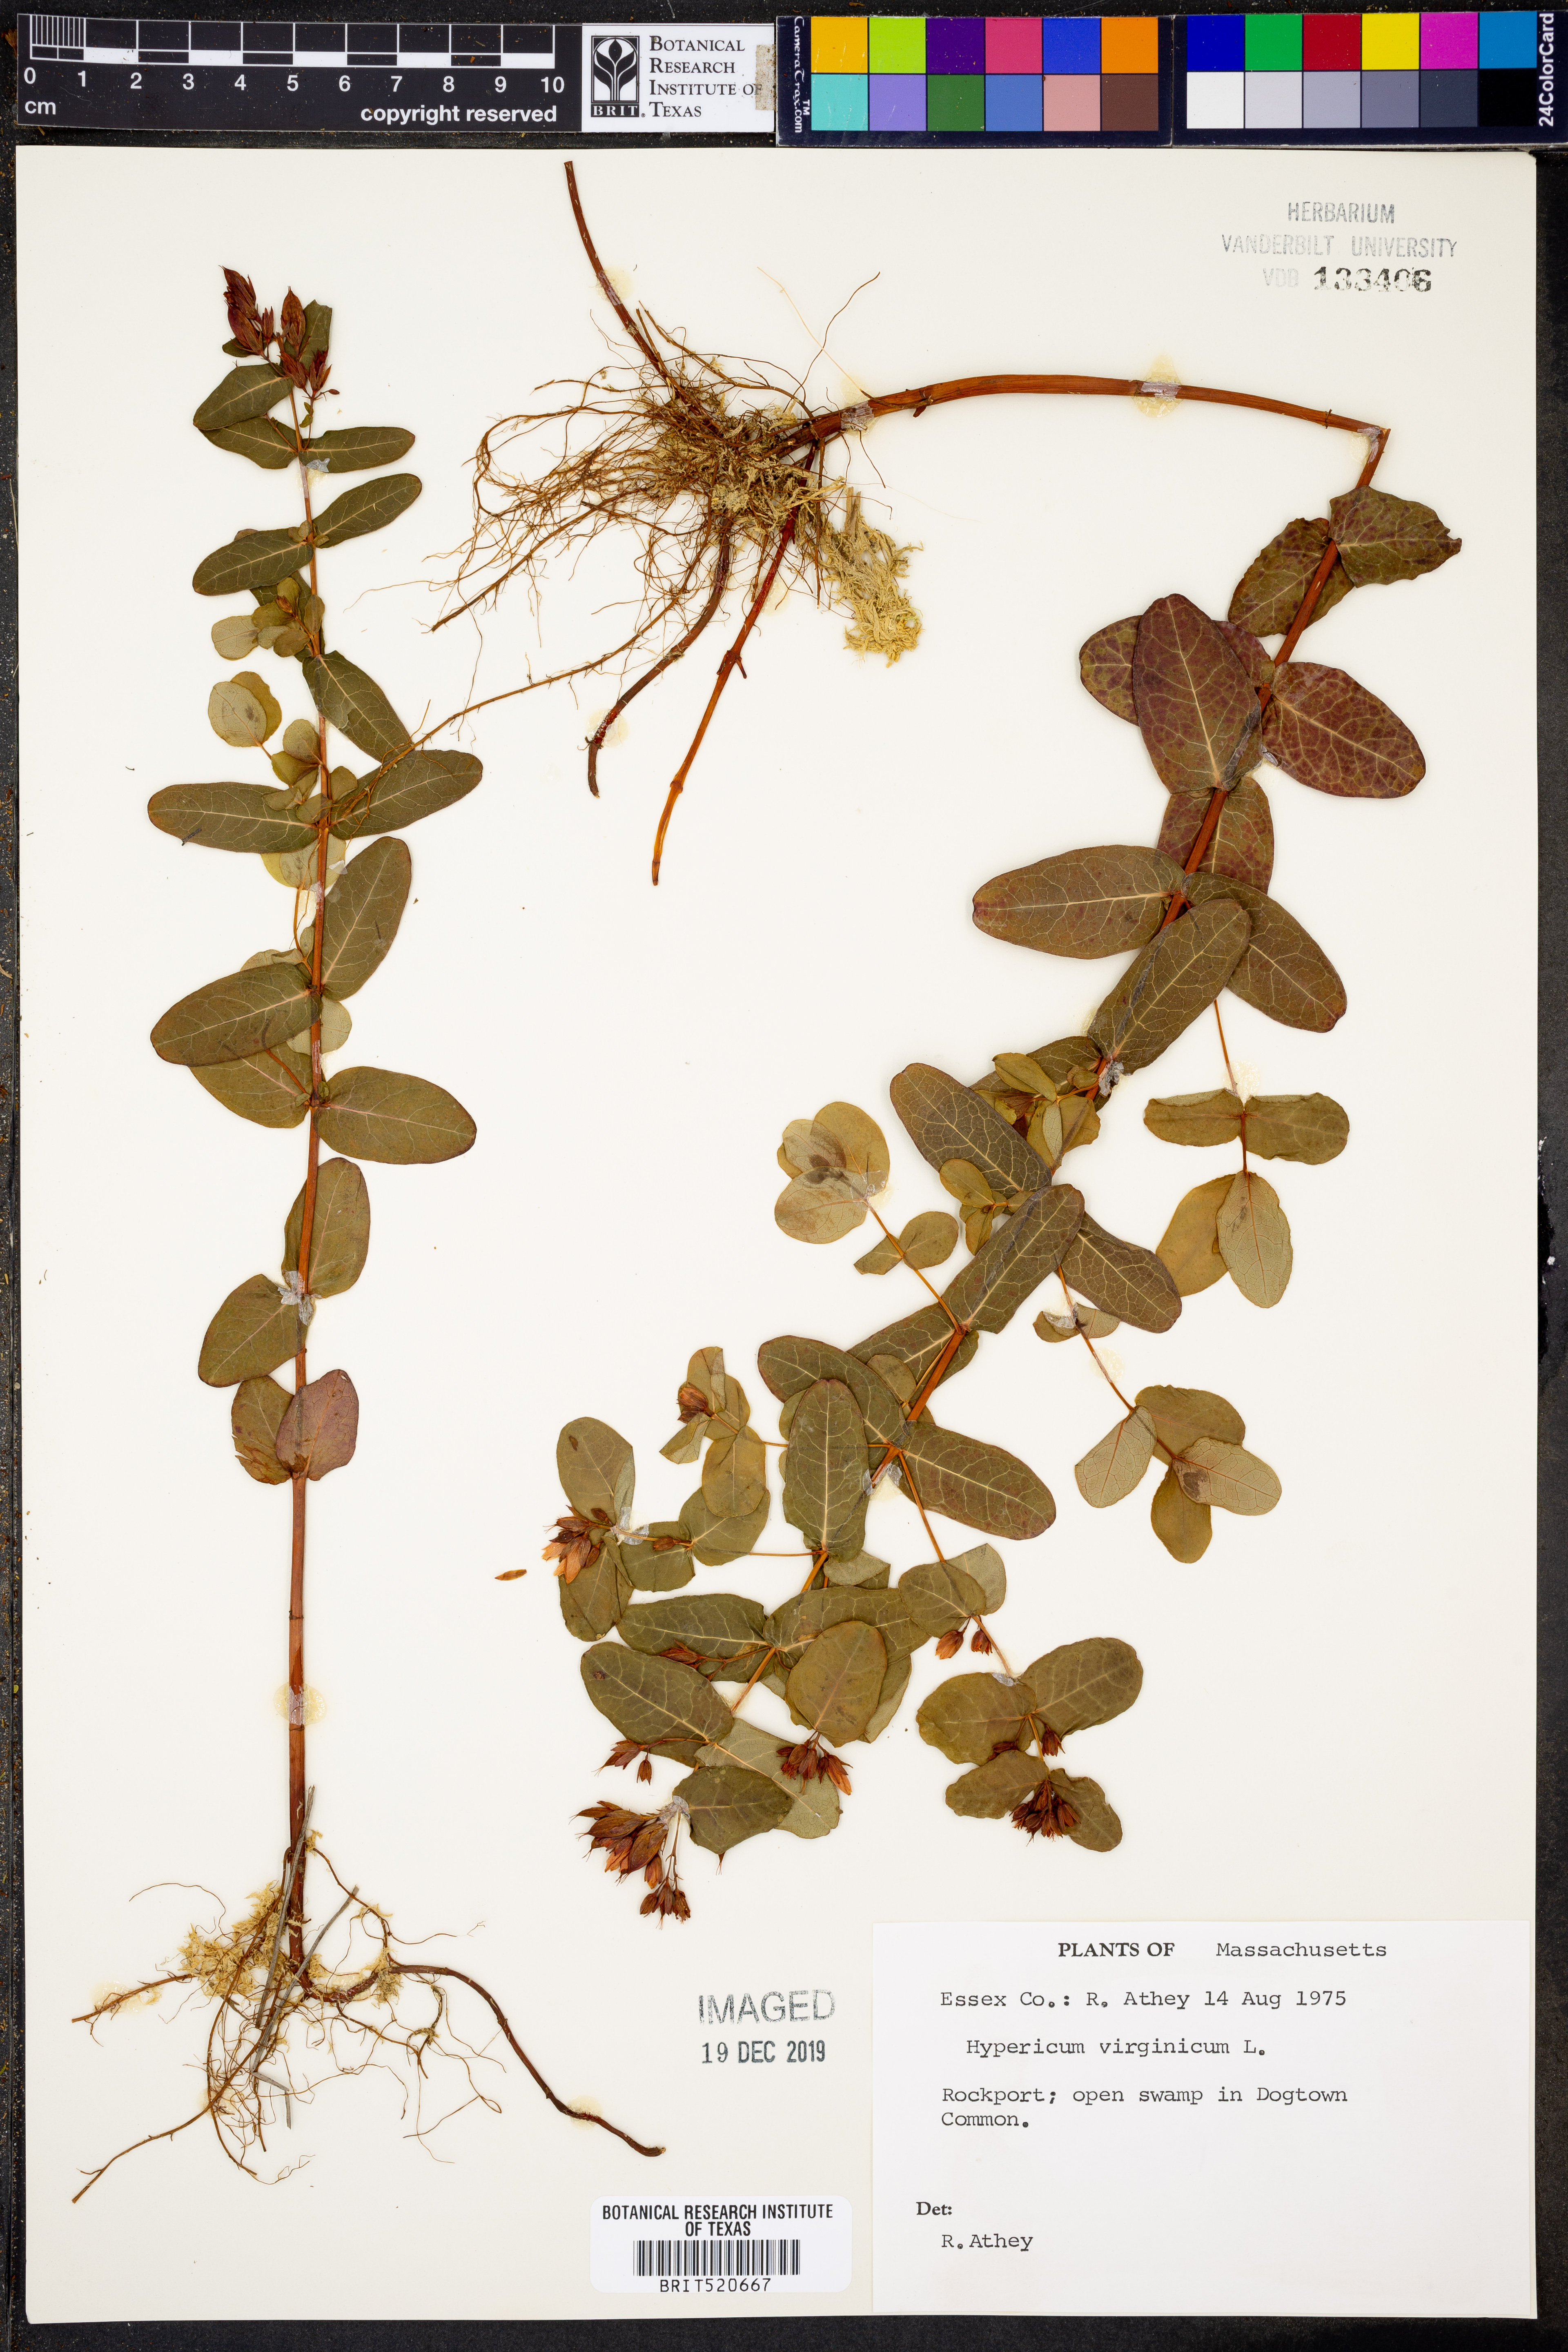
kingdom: Plantae
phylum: Tracheophyta
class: Magnoliopsida
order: Malpighiales
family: Hypericaceae
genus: Triadenum
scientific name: Triadenum virginicum
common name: Marsh st. john's-wort
